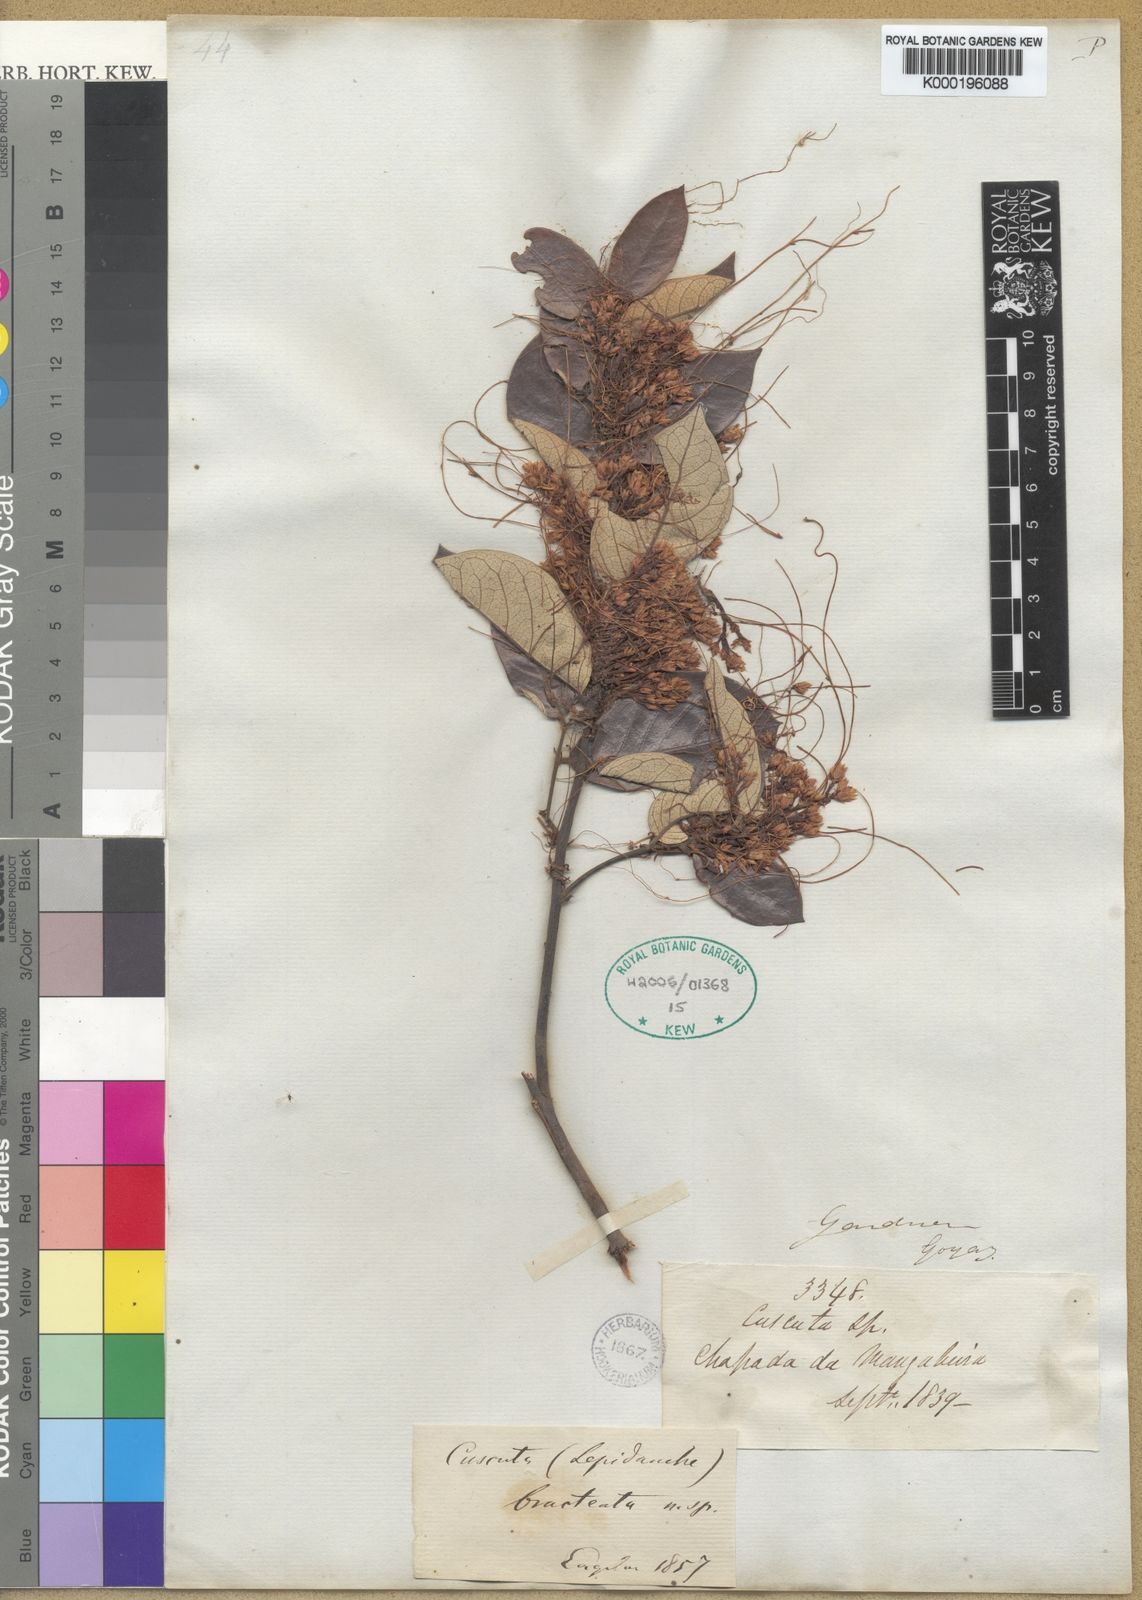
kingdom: Plantae
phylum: Tracheophyta
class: Magnoliopsida
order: Solanales
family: Convolvulaceae
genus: Cuscuta
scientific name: Cuscuta bracteata
